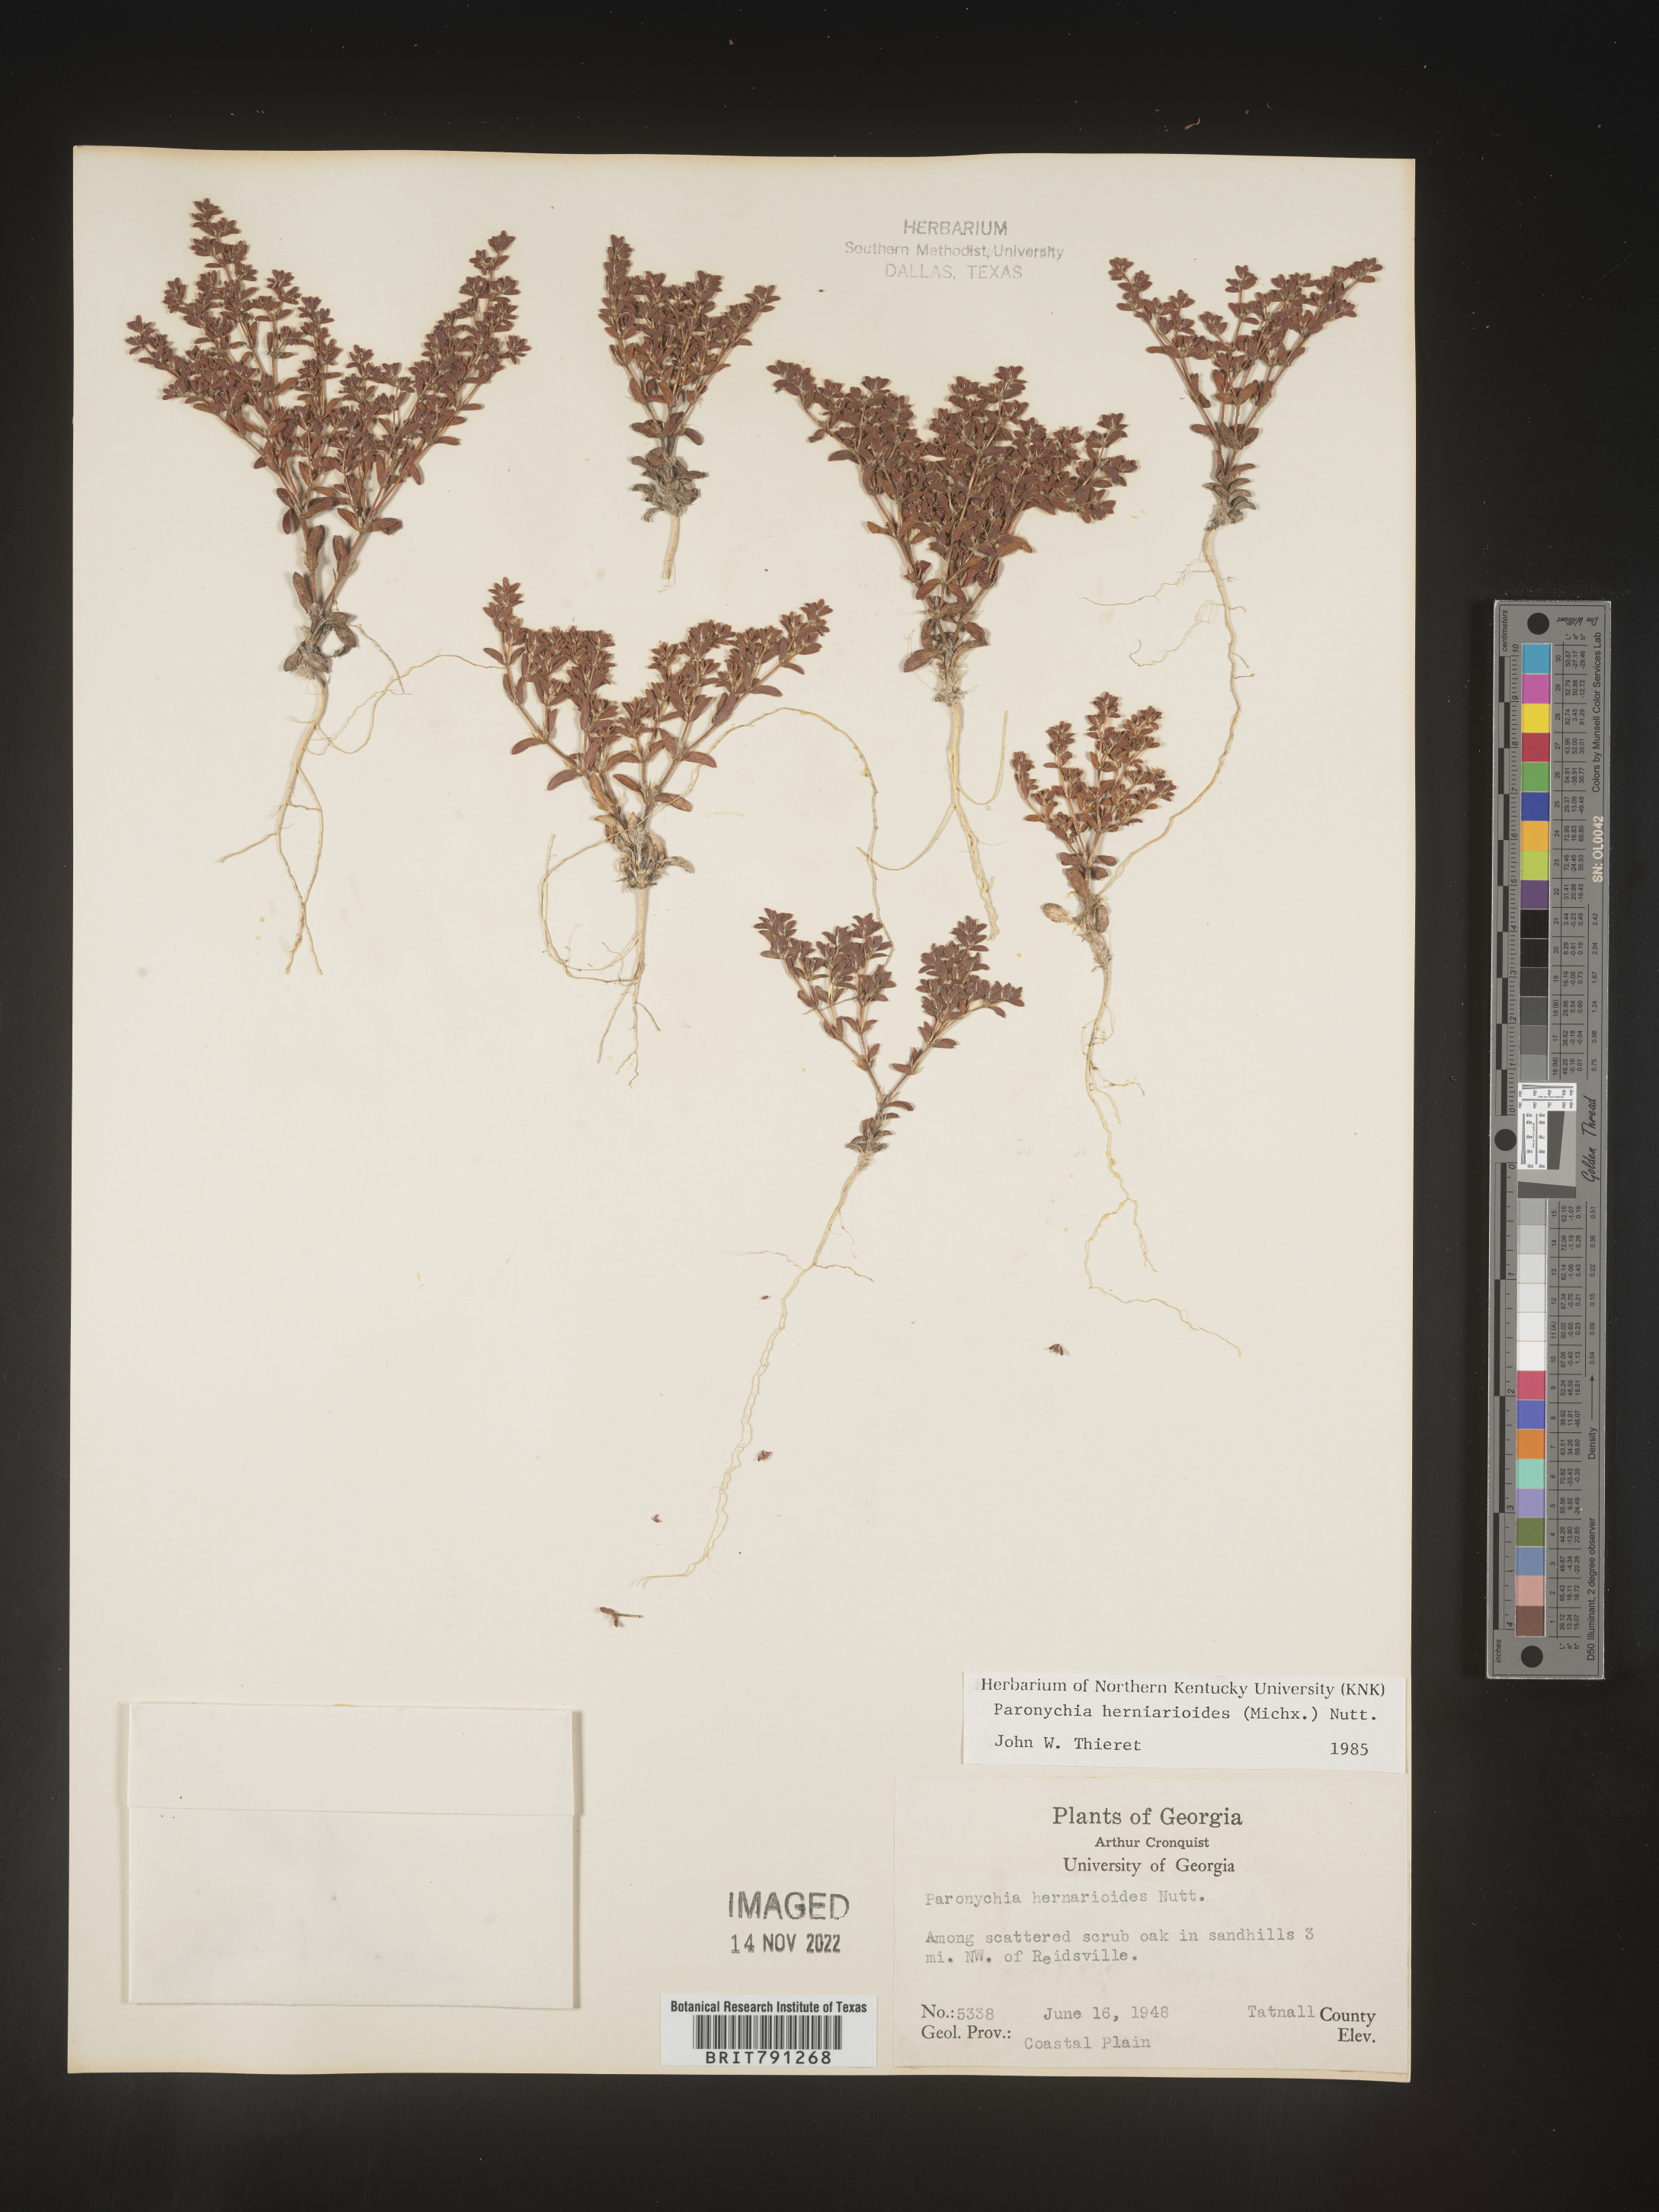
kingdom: Plantae
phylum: Tracheophyta
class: Magnoliopsida
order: Caryophyllales
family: Caryophyllaceae
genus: Paronychia
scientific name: Paronychia herniarioides
